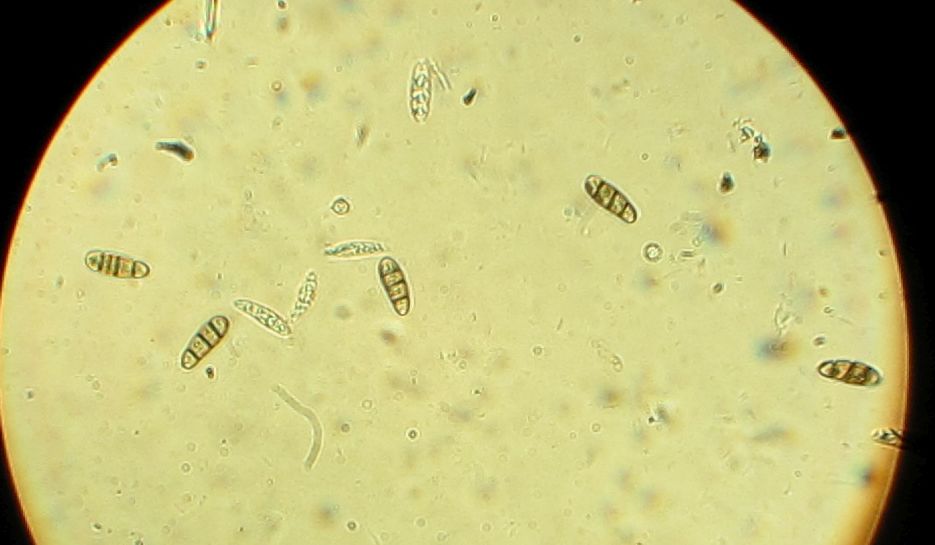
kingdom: Fungi
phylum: Ascomycota
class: Dothideomycetes
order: Hysteriales
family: Hysteriaceae
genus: Hysterium
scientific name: Hysterium acuminatum
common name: almindelig kulmund
